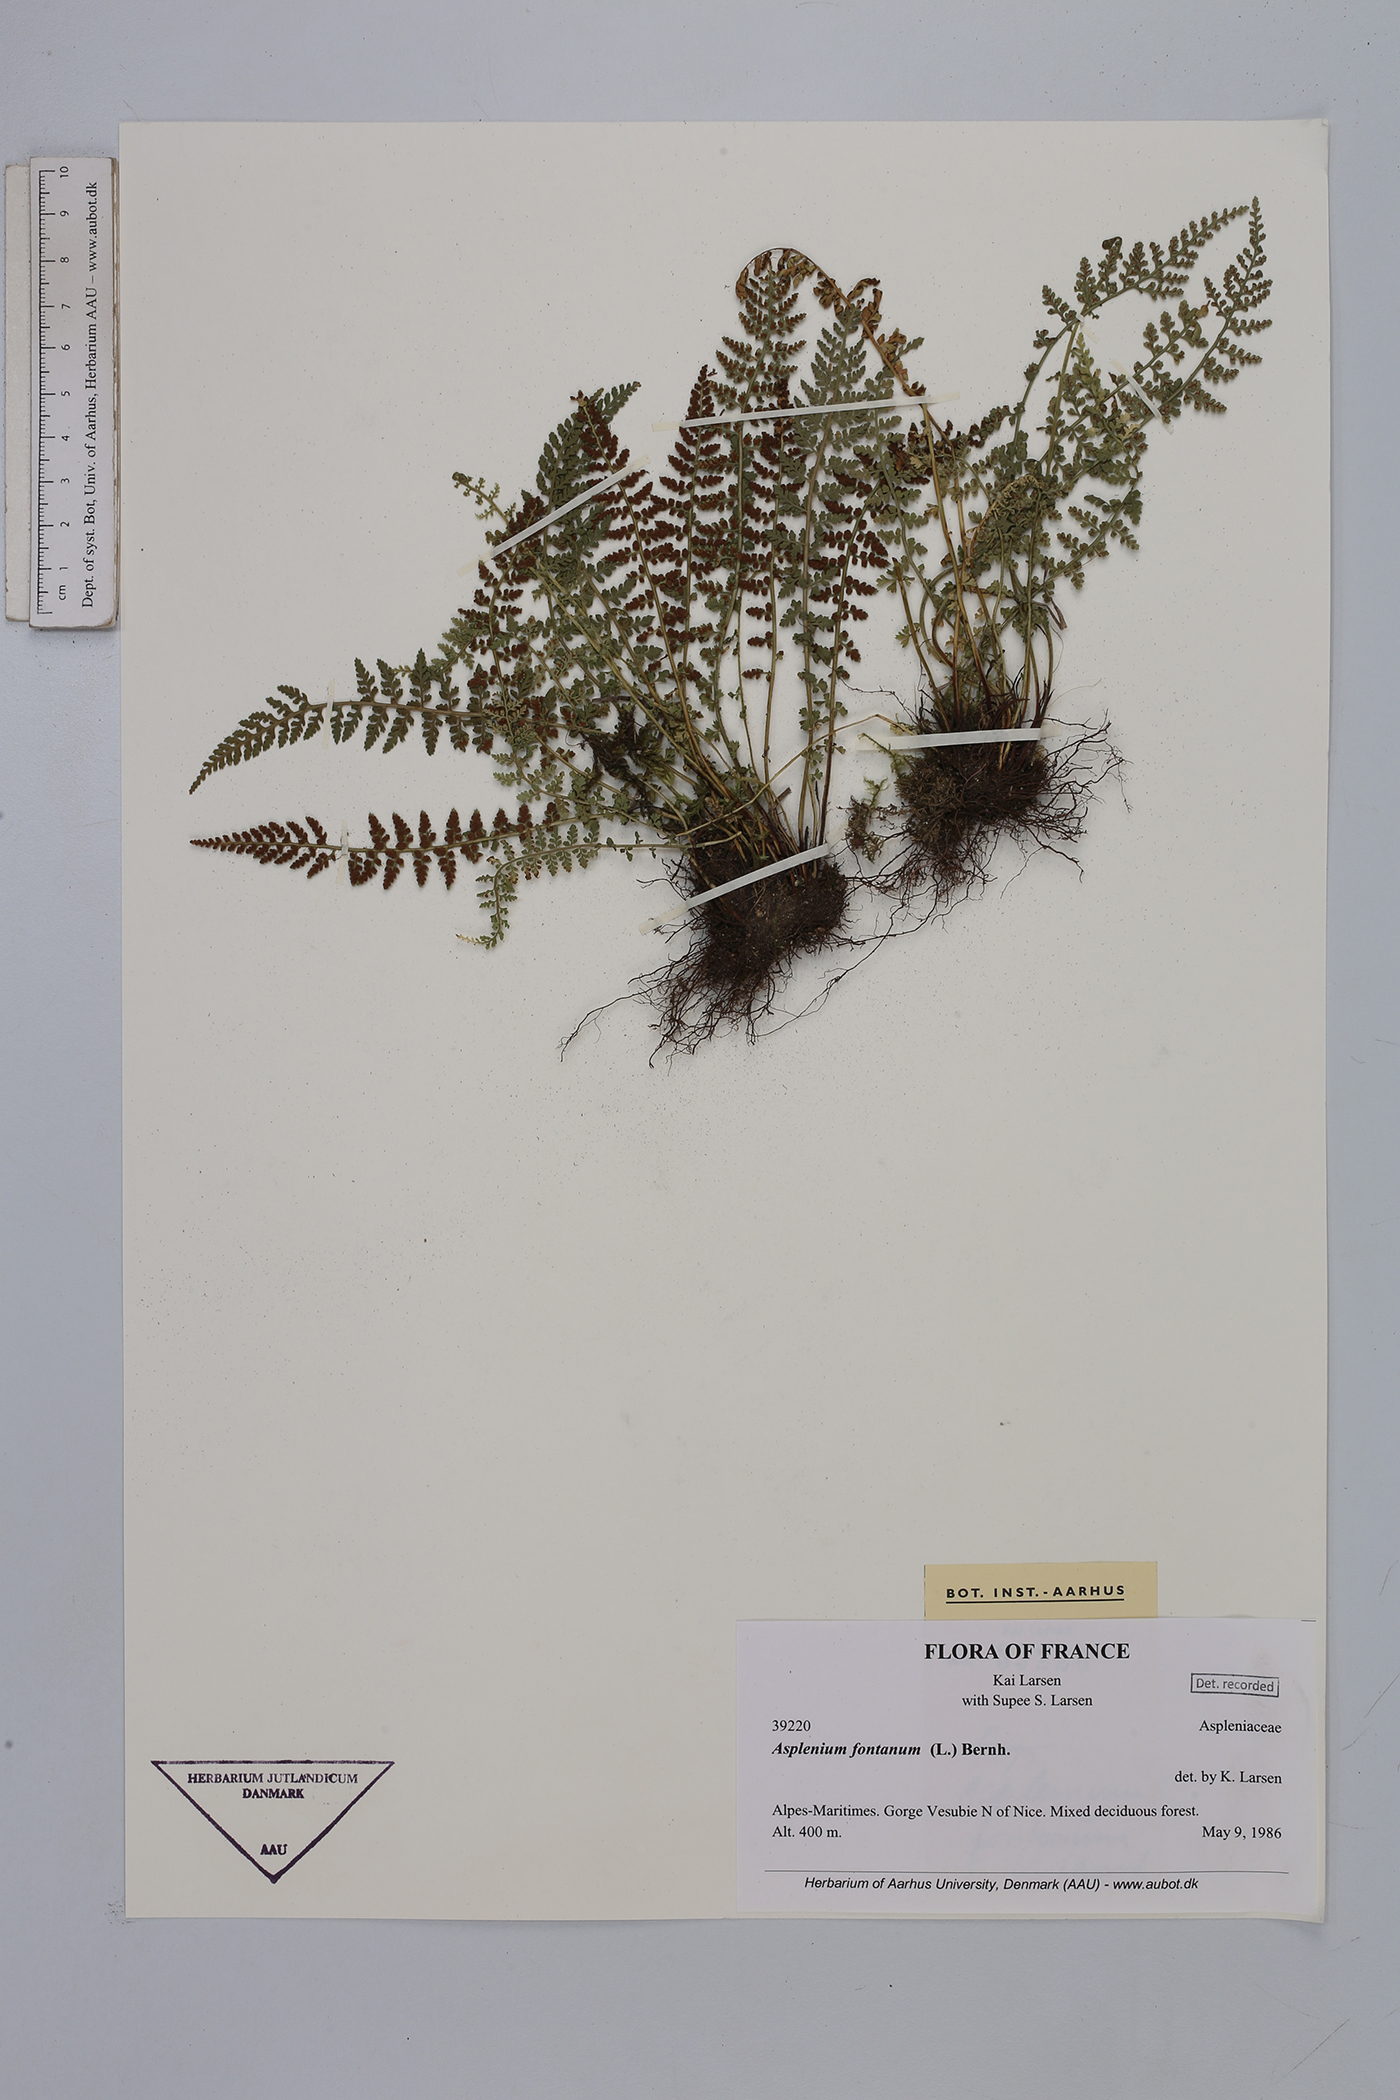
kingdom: Plantae
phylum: Tracheophyta
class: Polypodiopsida
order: Polypodiales
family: Aspleniaceae
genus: Asplenium
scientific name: Asplenium fontanum
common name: Fountain spleenwort
